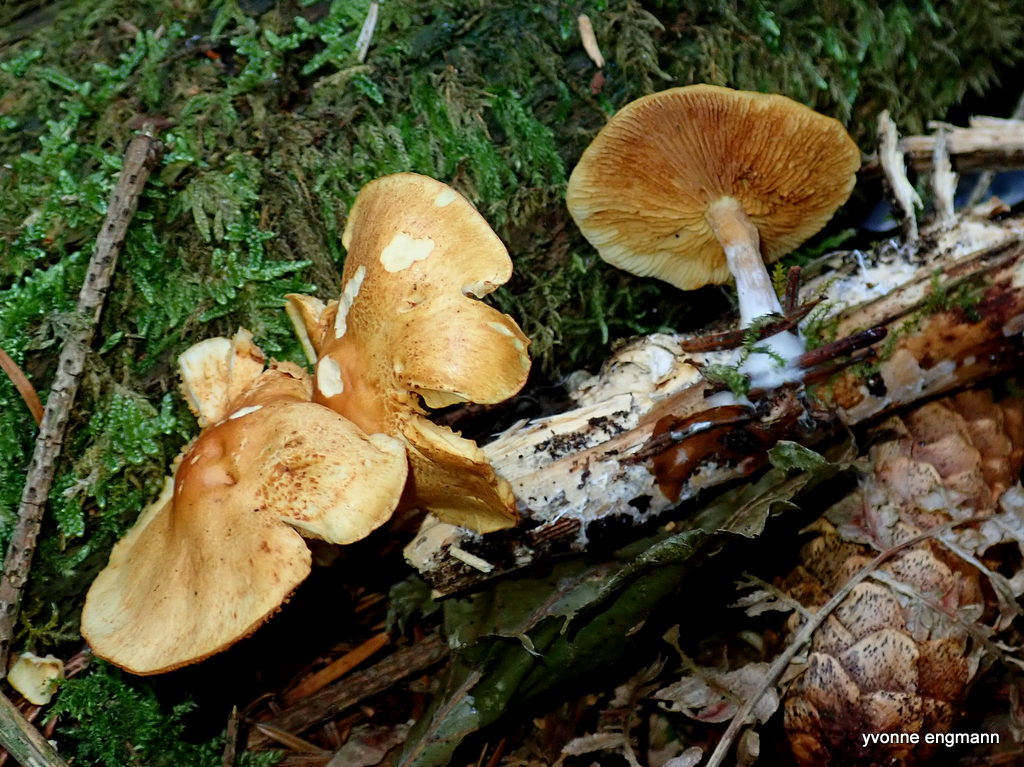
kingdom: Fungi
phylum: Basidiomycota
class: Agaricomycetes
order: Agaricales
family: Hymenogastraceae
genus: Gymnopilus
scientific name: Gymnopilus penetrans
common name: plettet flammehat
